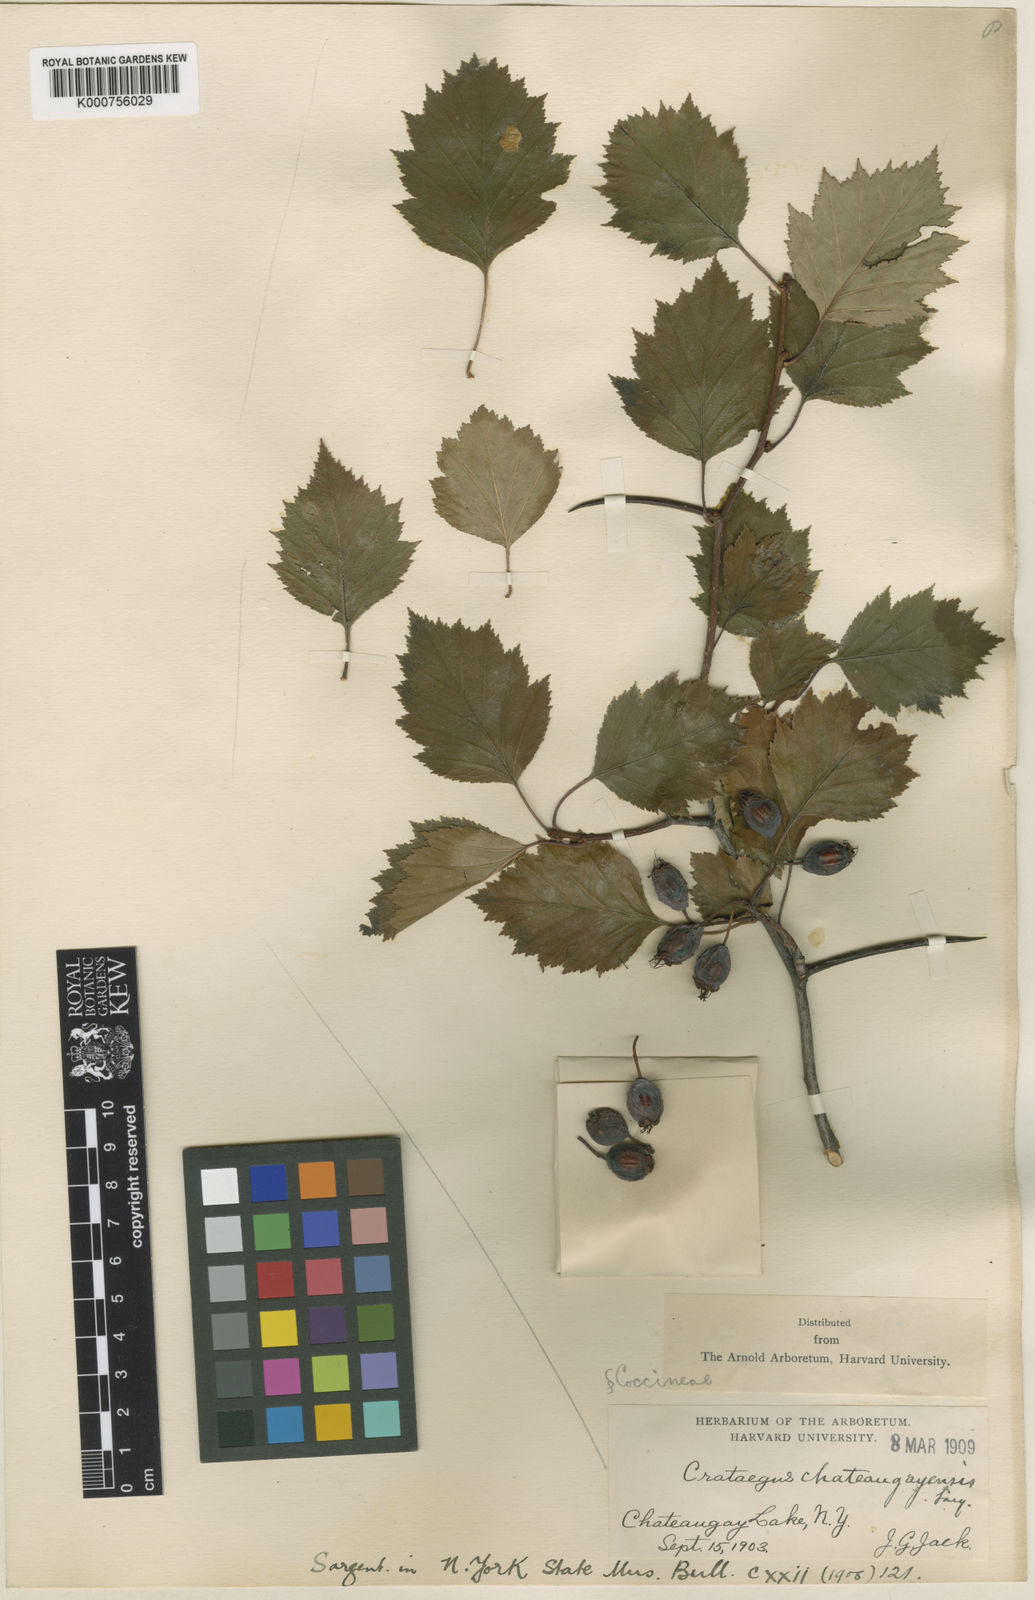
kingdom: Plantae
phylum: Tracheophyta
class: Magnoliopsida
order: Rosales
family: Rosaceae
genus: Crataegus
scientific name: Crataegus
